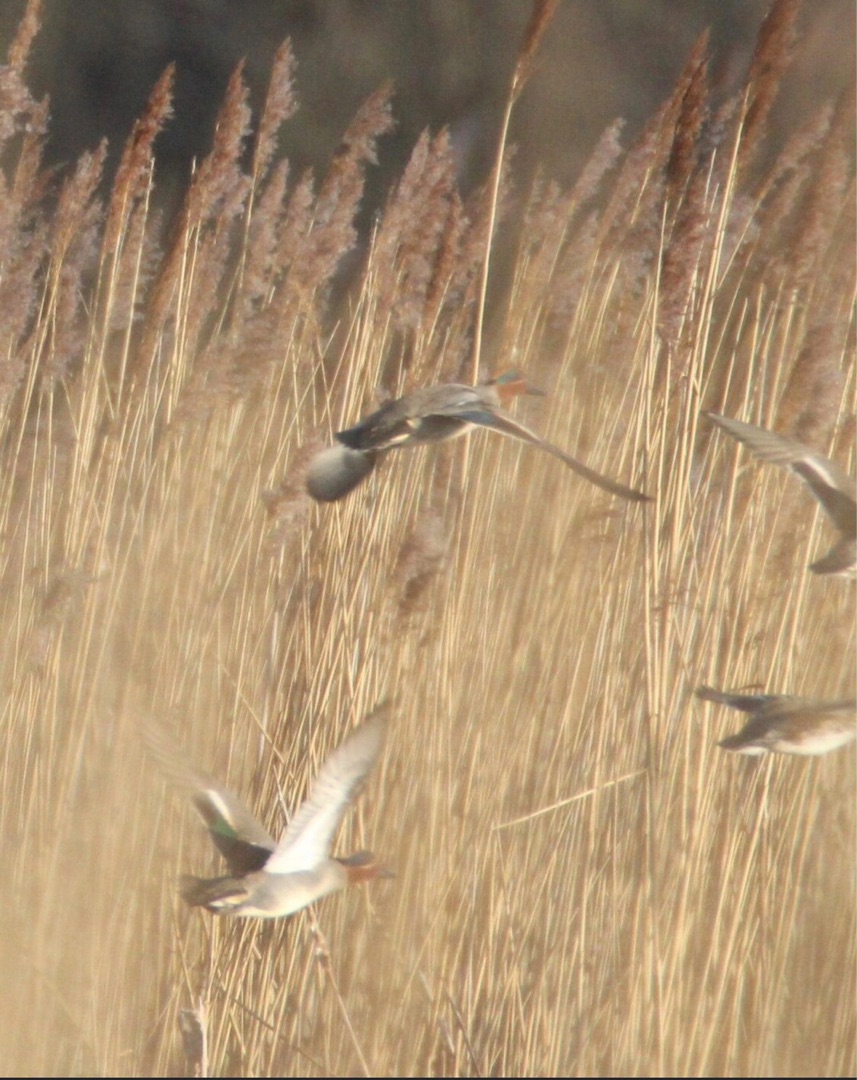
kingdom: Animalia
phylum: Chordata
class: Aves
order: Anseriformes
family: Anatidae
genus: Anas
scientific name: Anas crecca
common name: Krikand
